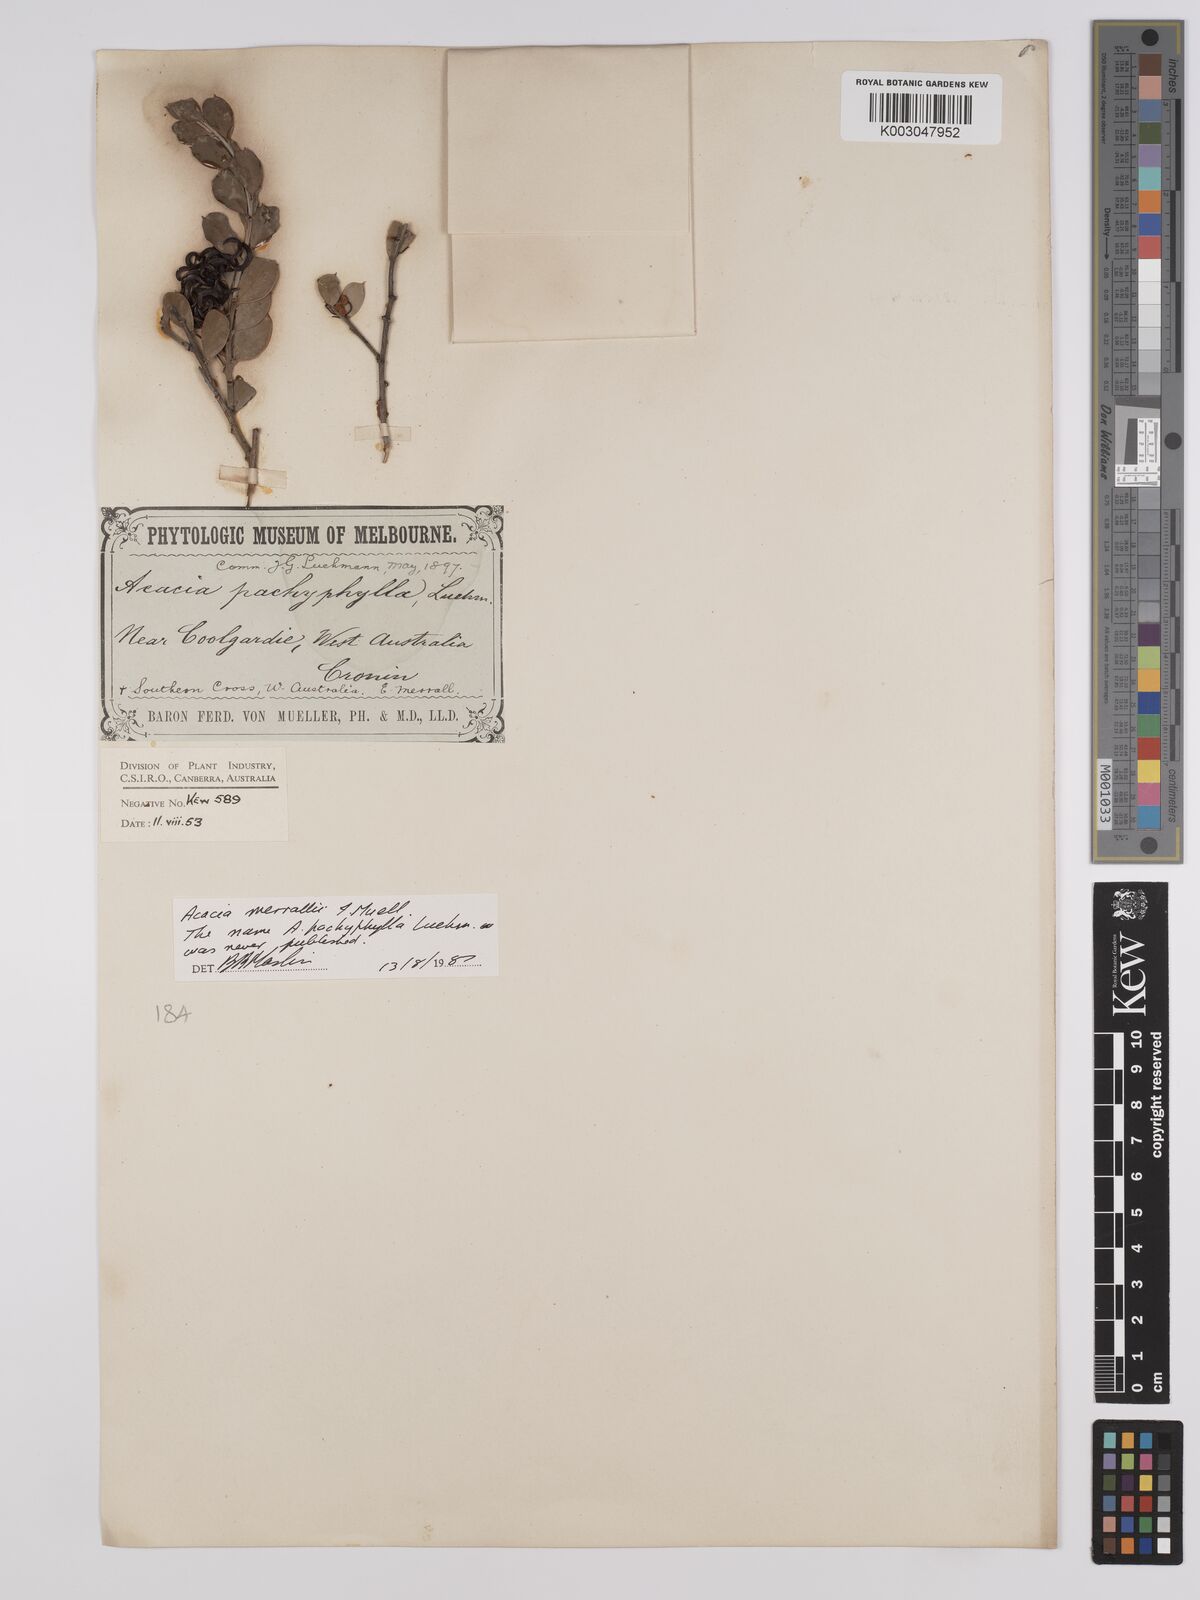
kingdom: Plantae
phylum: Tracheophyta
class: Magnoliopsida
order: Fabales
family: Fabaceae
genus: Acacia
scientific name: Acacia merrallii
